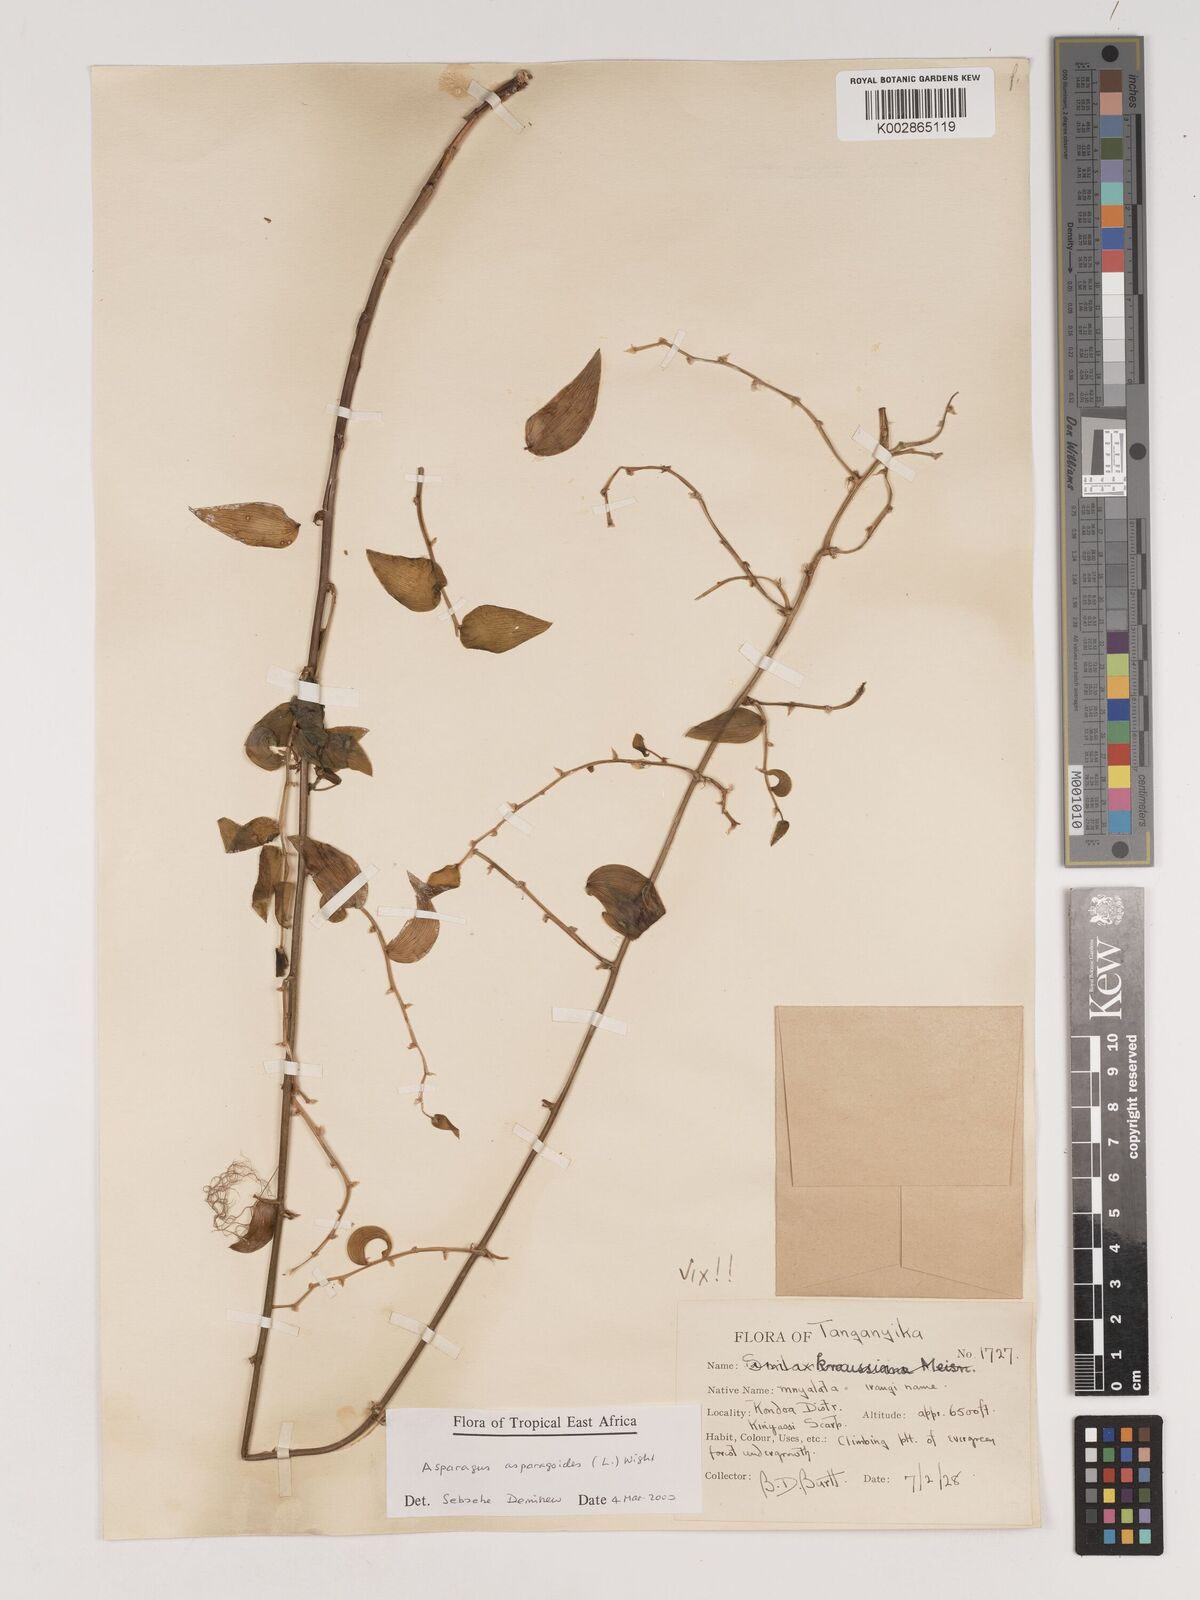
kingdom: Plantae
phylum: Tracheophyta
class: Liliopsida
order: Asparagales
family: Asparagaceae
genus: Asparagus
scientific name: Asparagus asparagoides
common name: African asparagus fern
